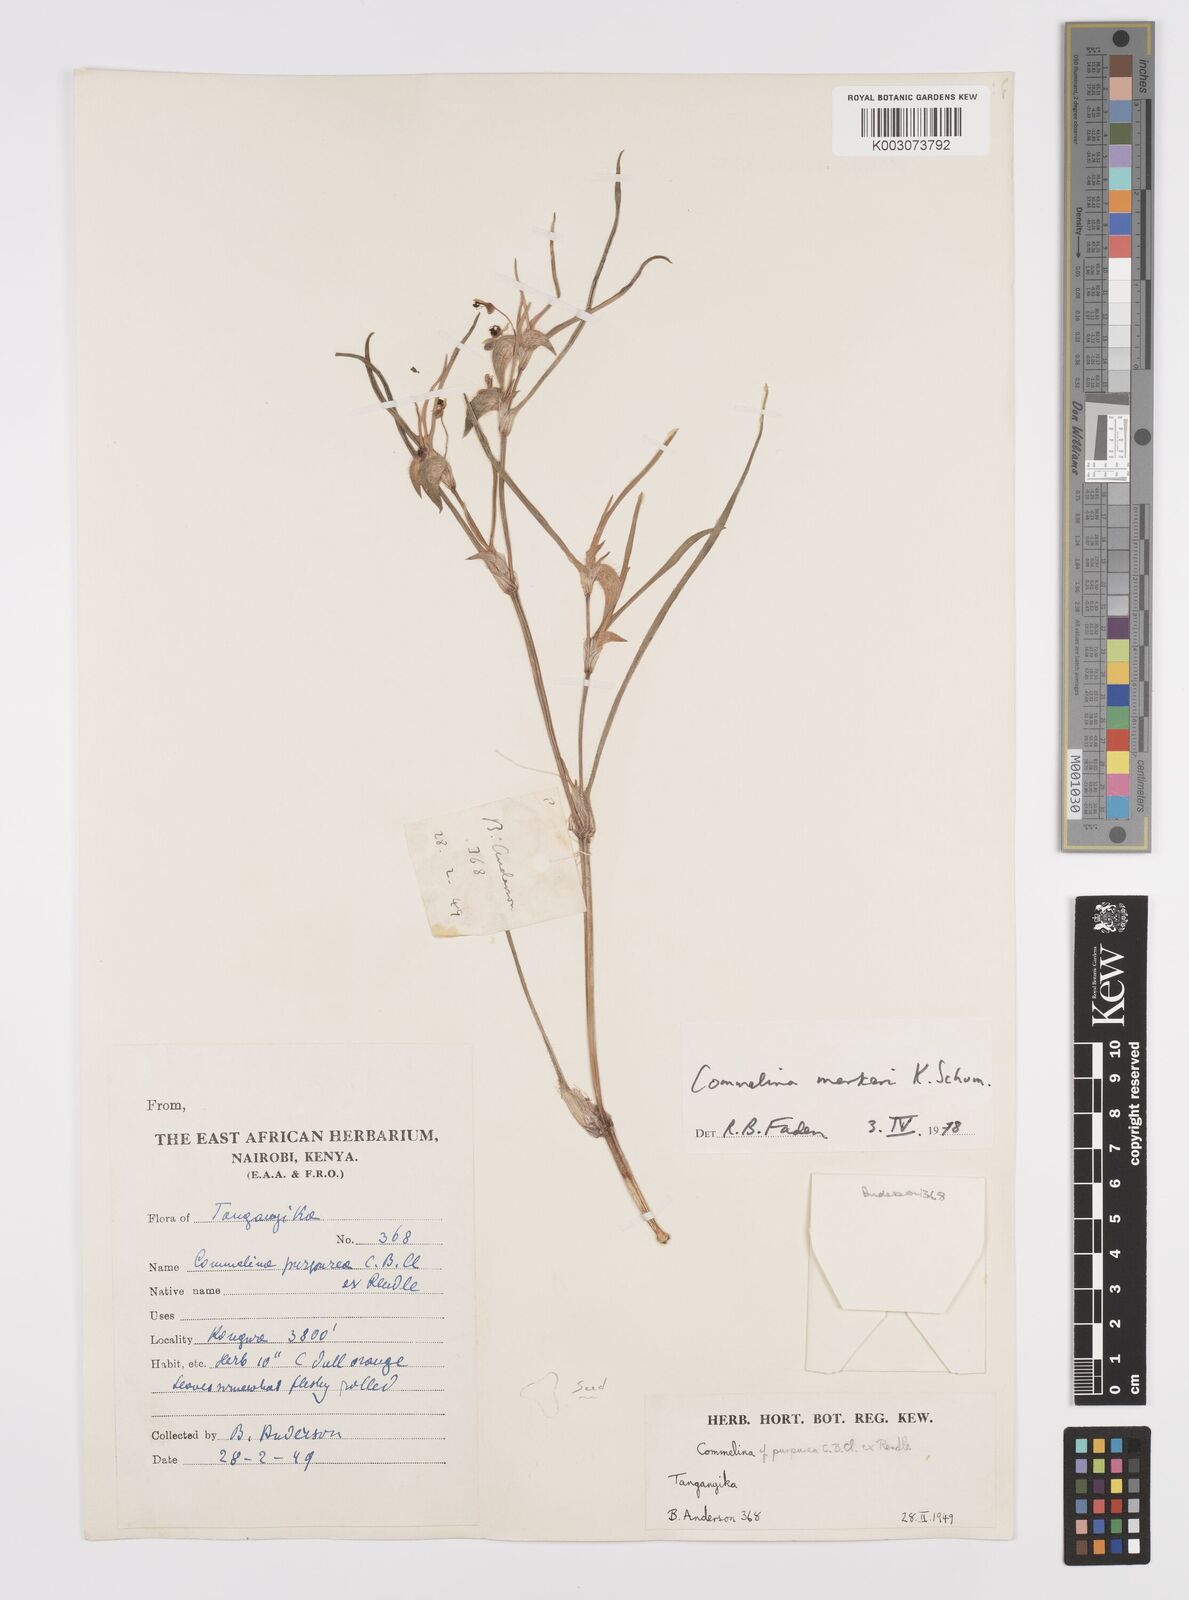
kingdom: Plantae
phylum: Tracheophyta
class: Liliopsida
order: Commelinales
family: Commelinaceae
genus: Commelina
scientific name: Commelina merkeri
